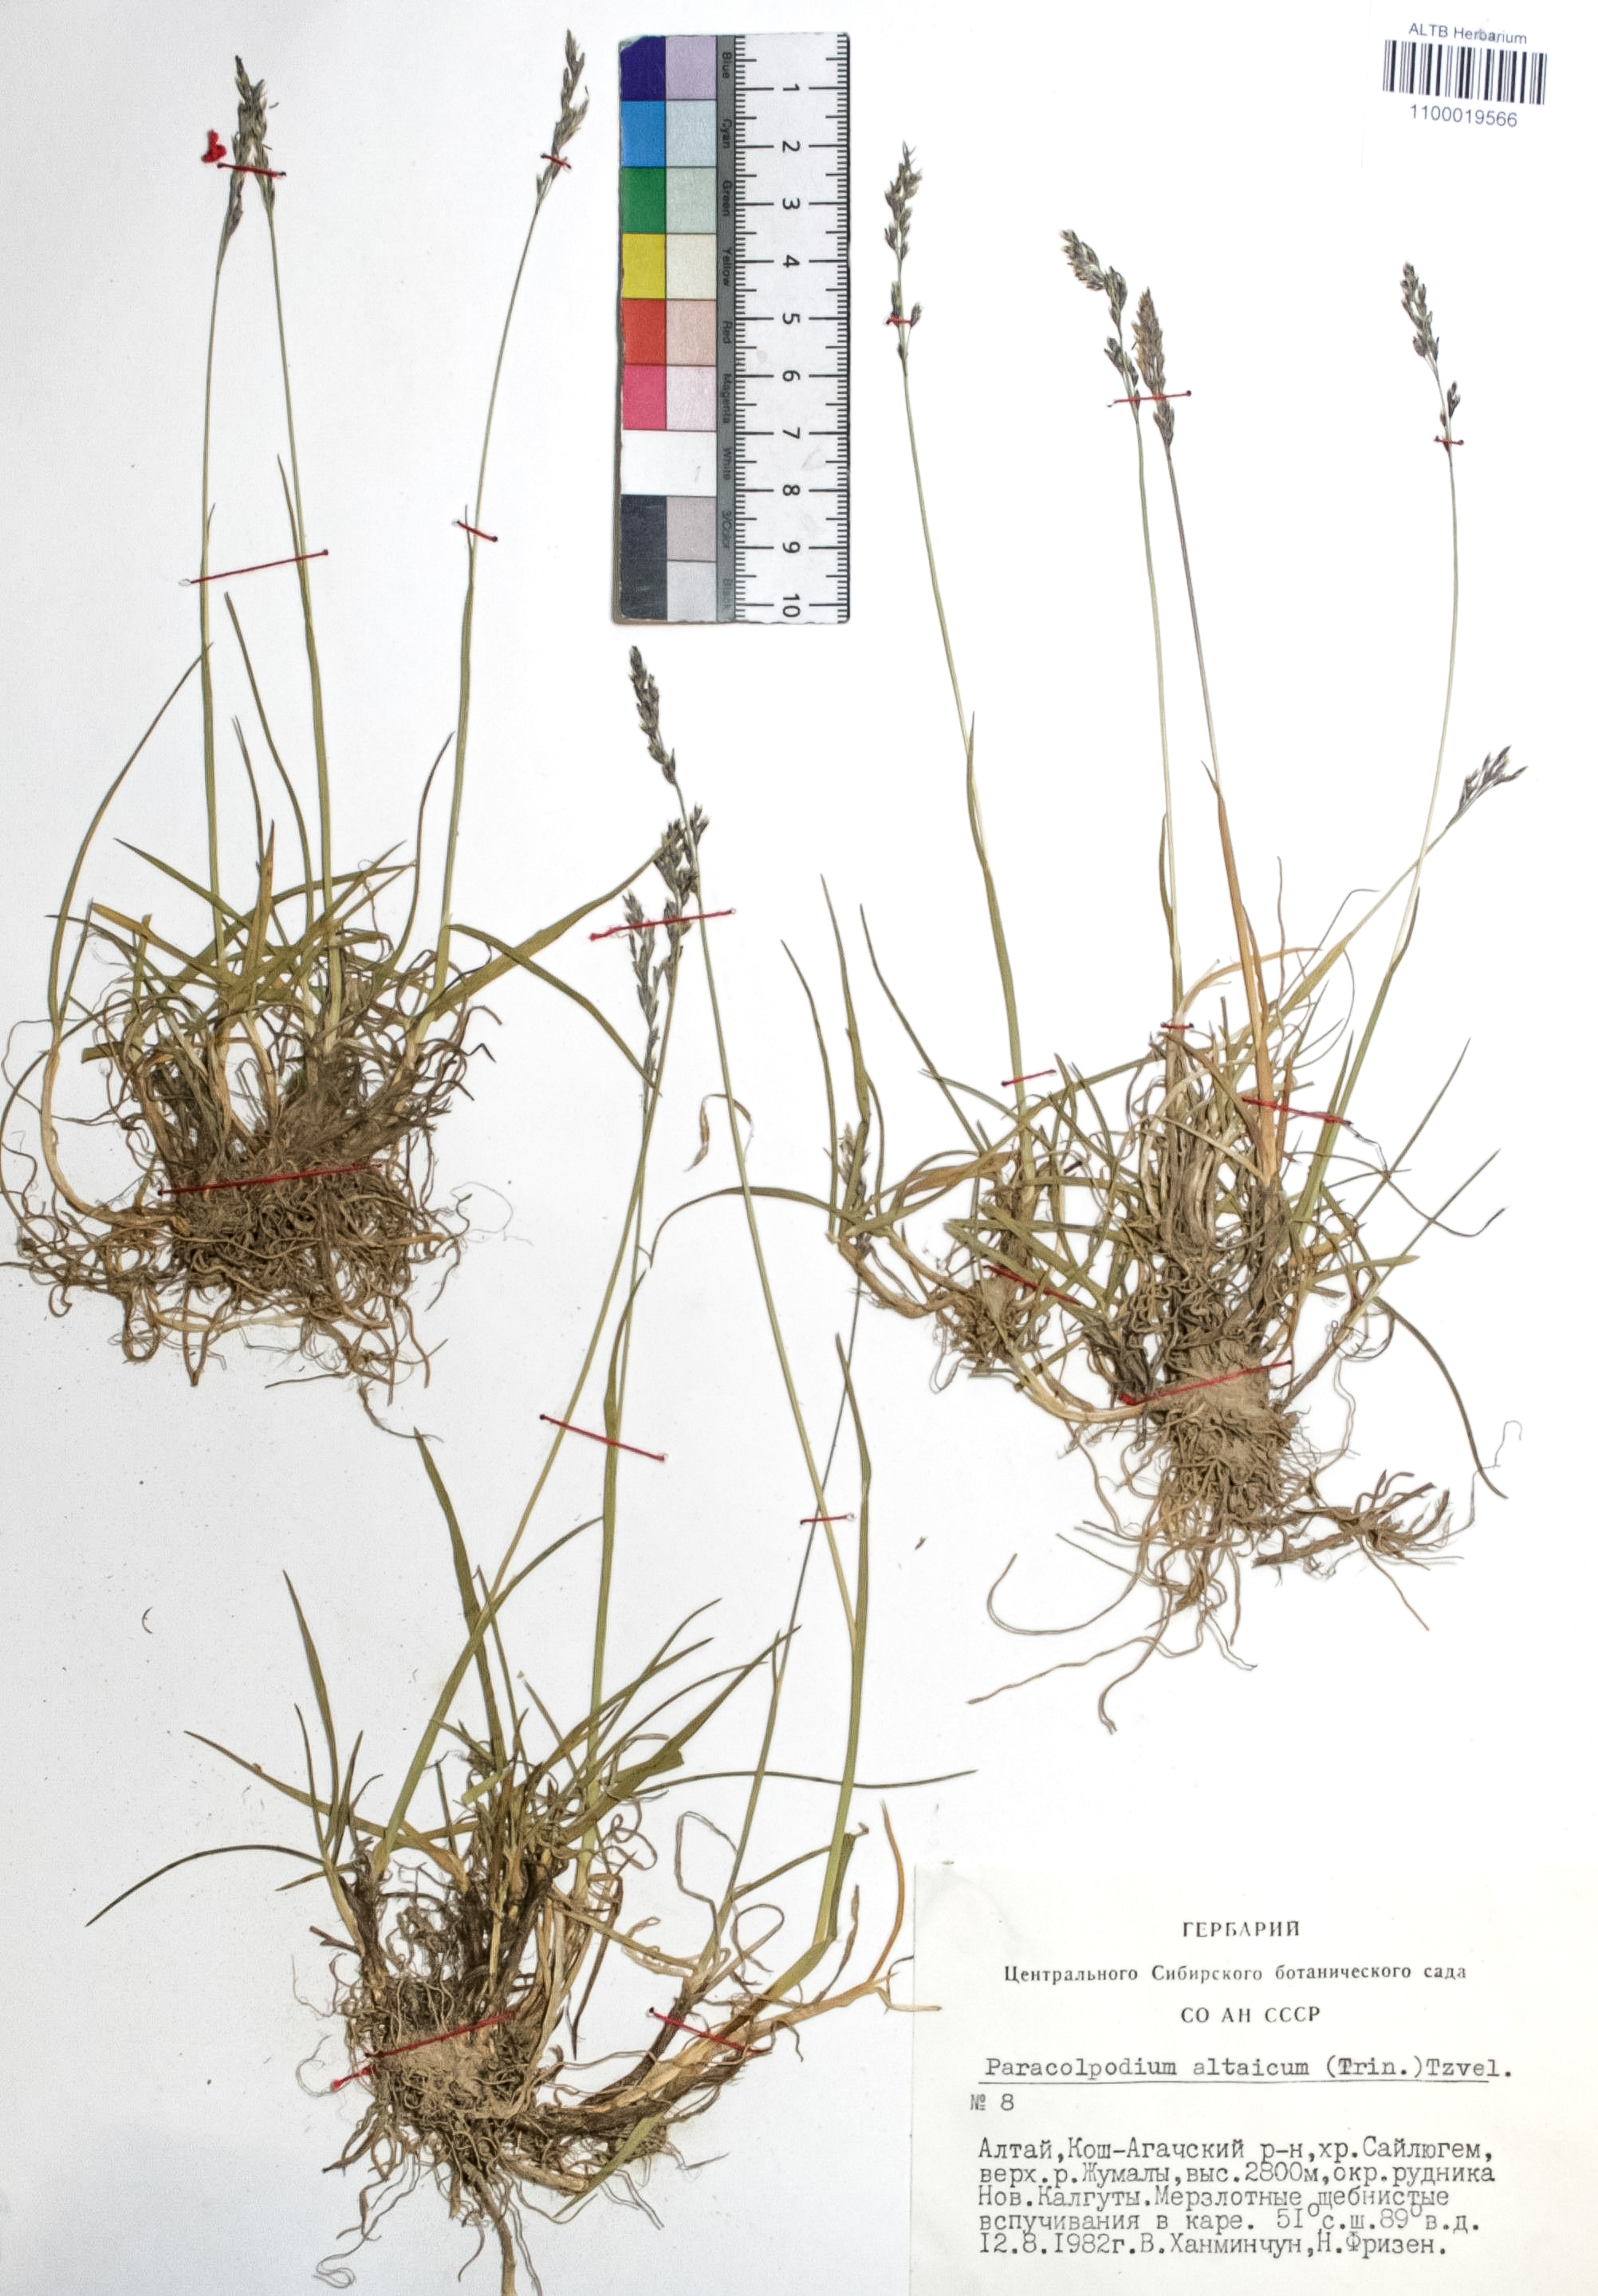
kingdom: Plantae
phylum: Tracheophyta
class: Liliopsida
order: Poales
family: Poaceae
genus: Paracolpodium
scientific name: Paracolpodium altaicum
